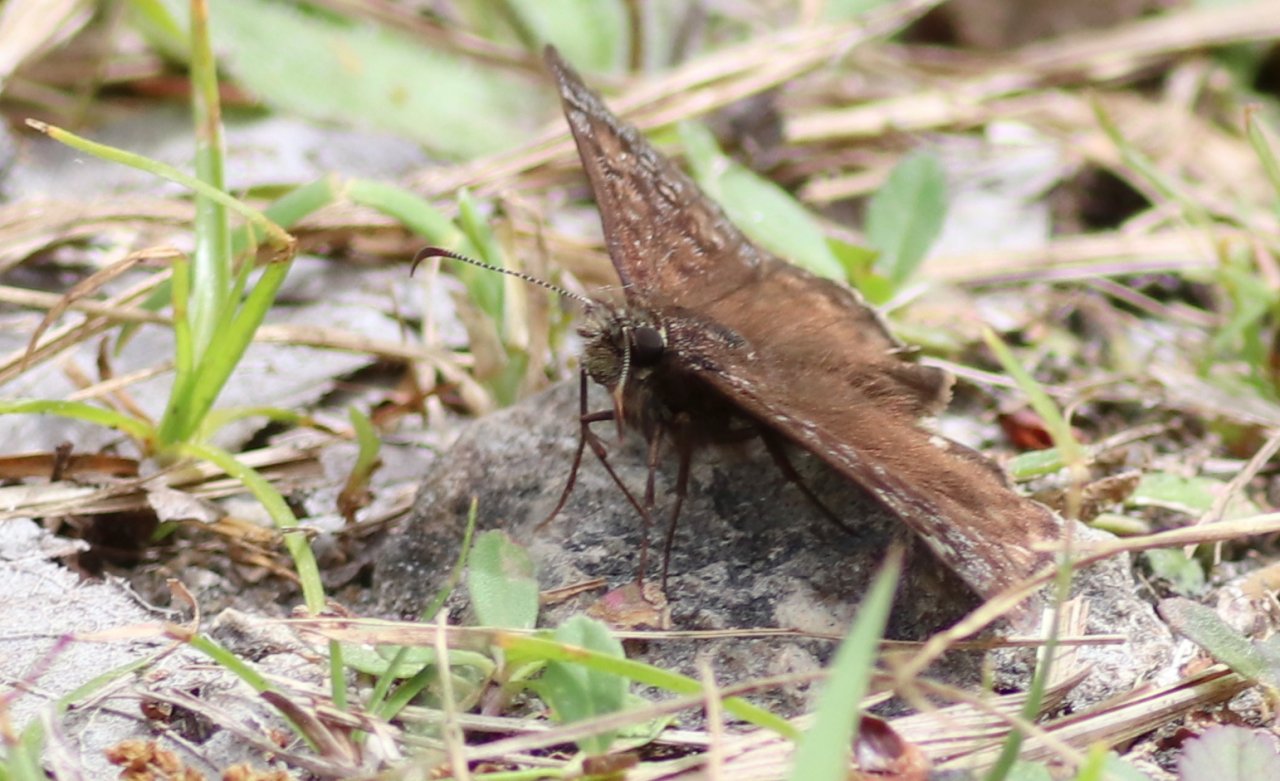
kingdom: Animalia
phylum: Arthropoda
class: Insecta
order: Lepidoptera
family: Hesperiidae
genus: Gesta
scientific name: Gesta
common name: Juvenal's Duskywing
